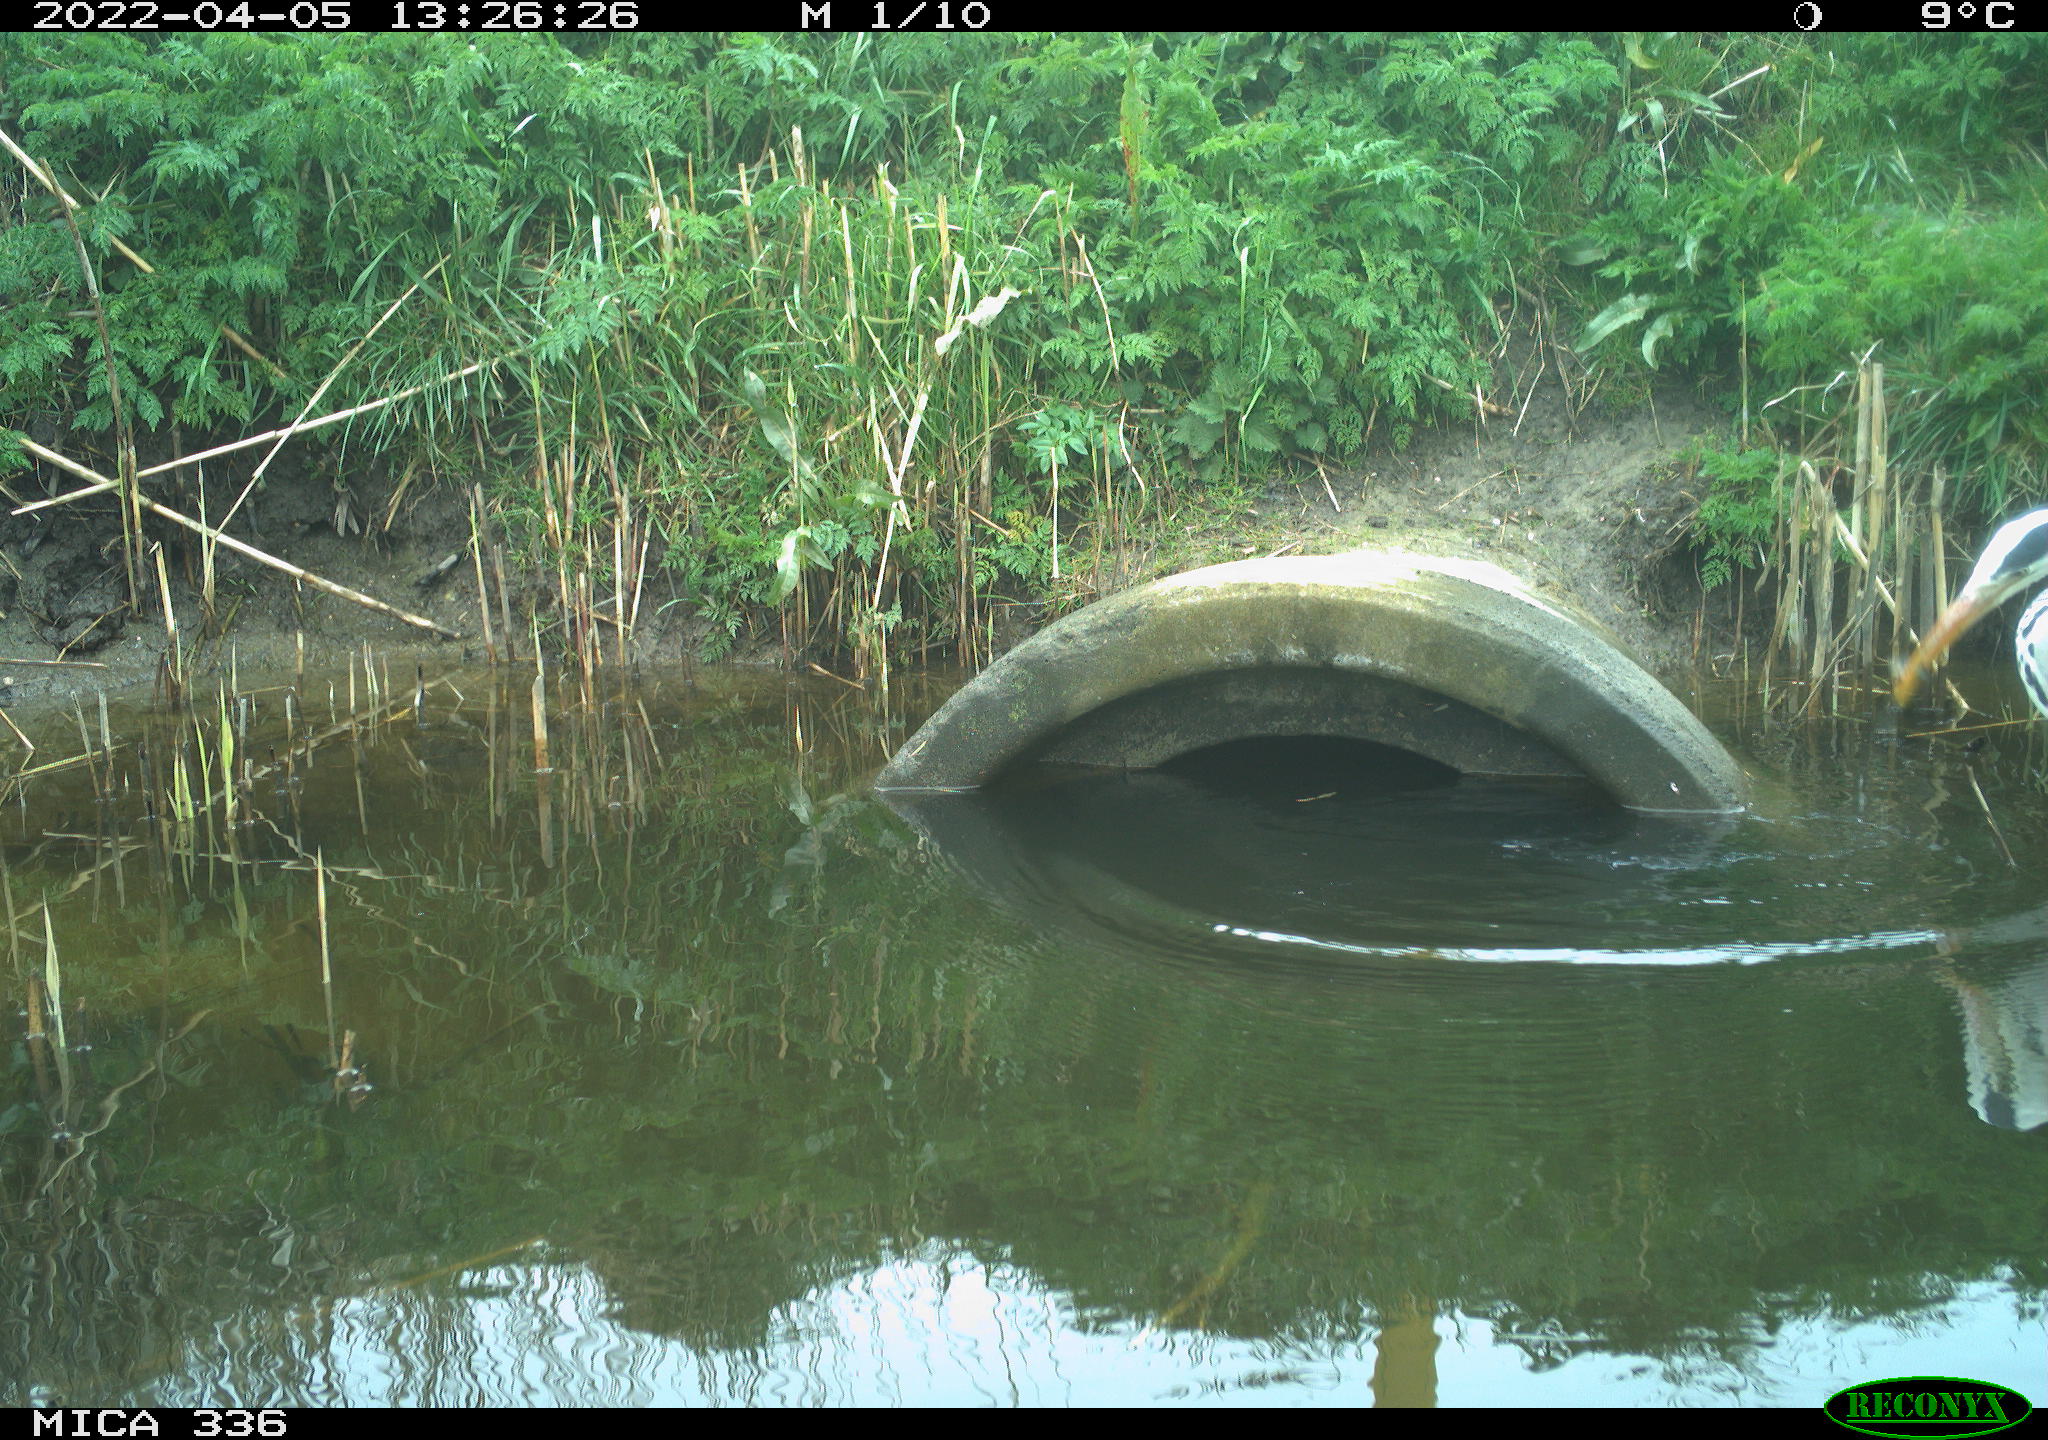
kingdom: Animalia
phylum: Chordata
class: Aves
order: Pelecaniformes
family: Ardeidae
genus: Ardea
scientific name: Ardea cinerea
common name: Grey heron
